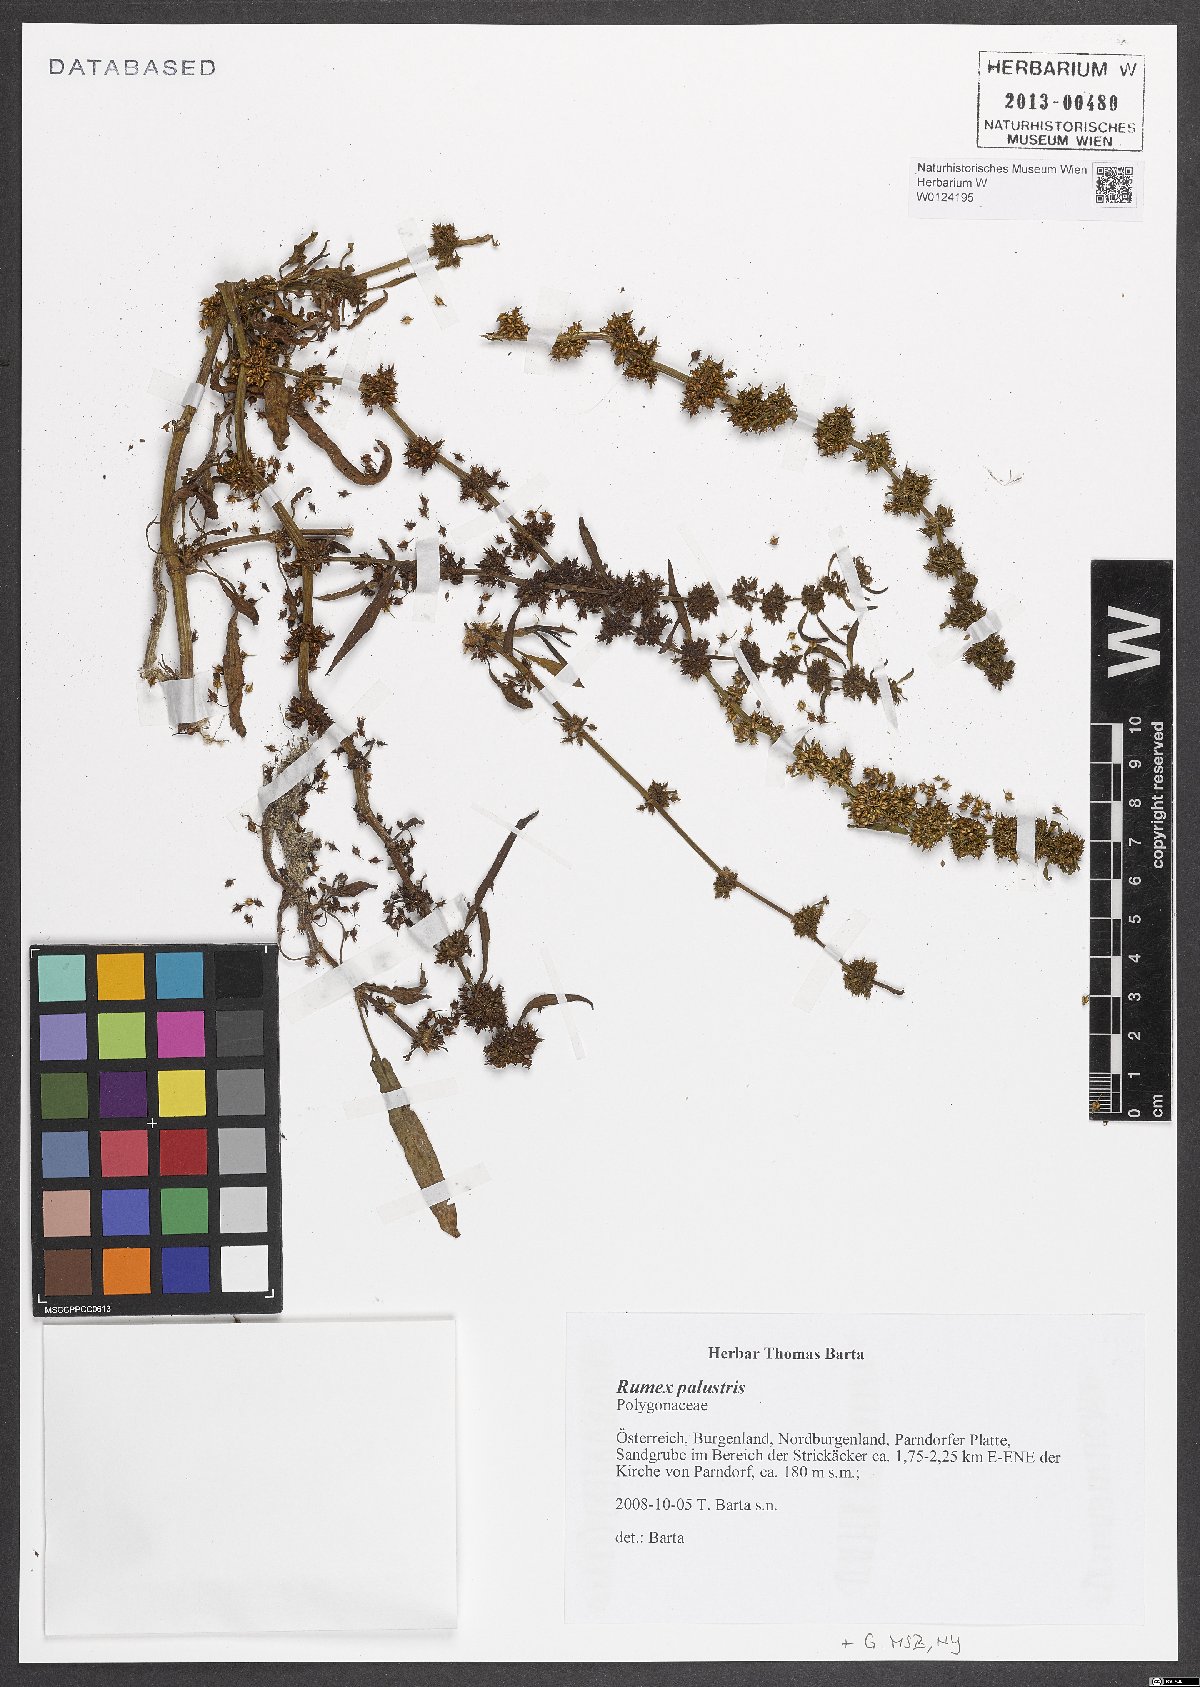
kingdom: Plantae
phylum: Tracheophyta
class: Magnoliopsida
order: Caryophyllales
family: Polygonaceae
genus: Rumex
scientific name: Rumex palustris
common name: Marsh dock
